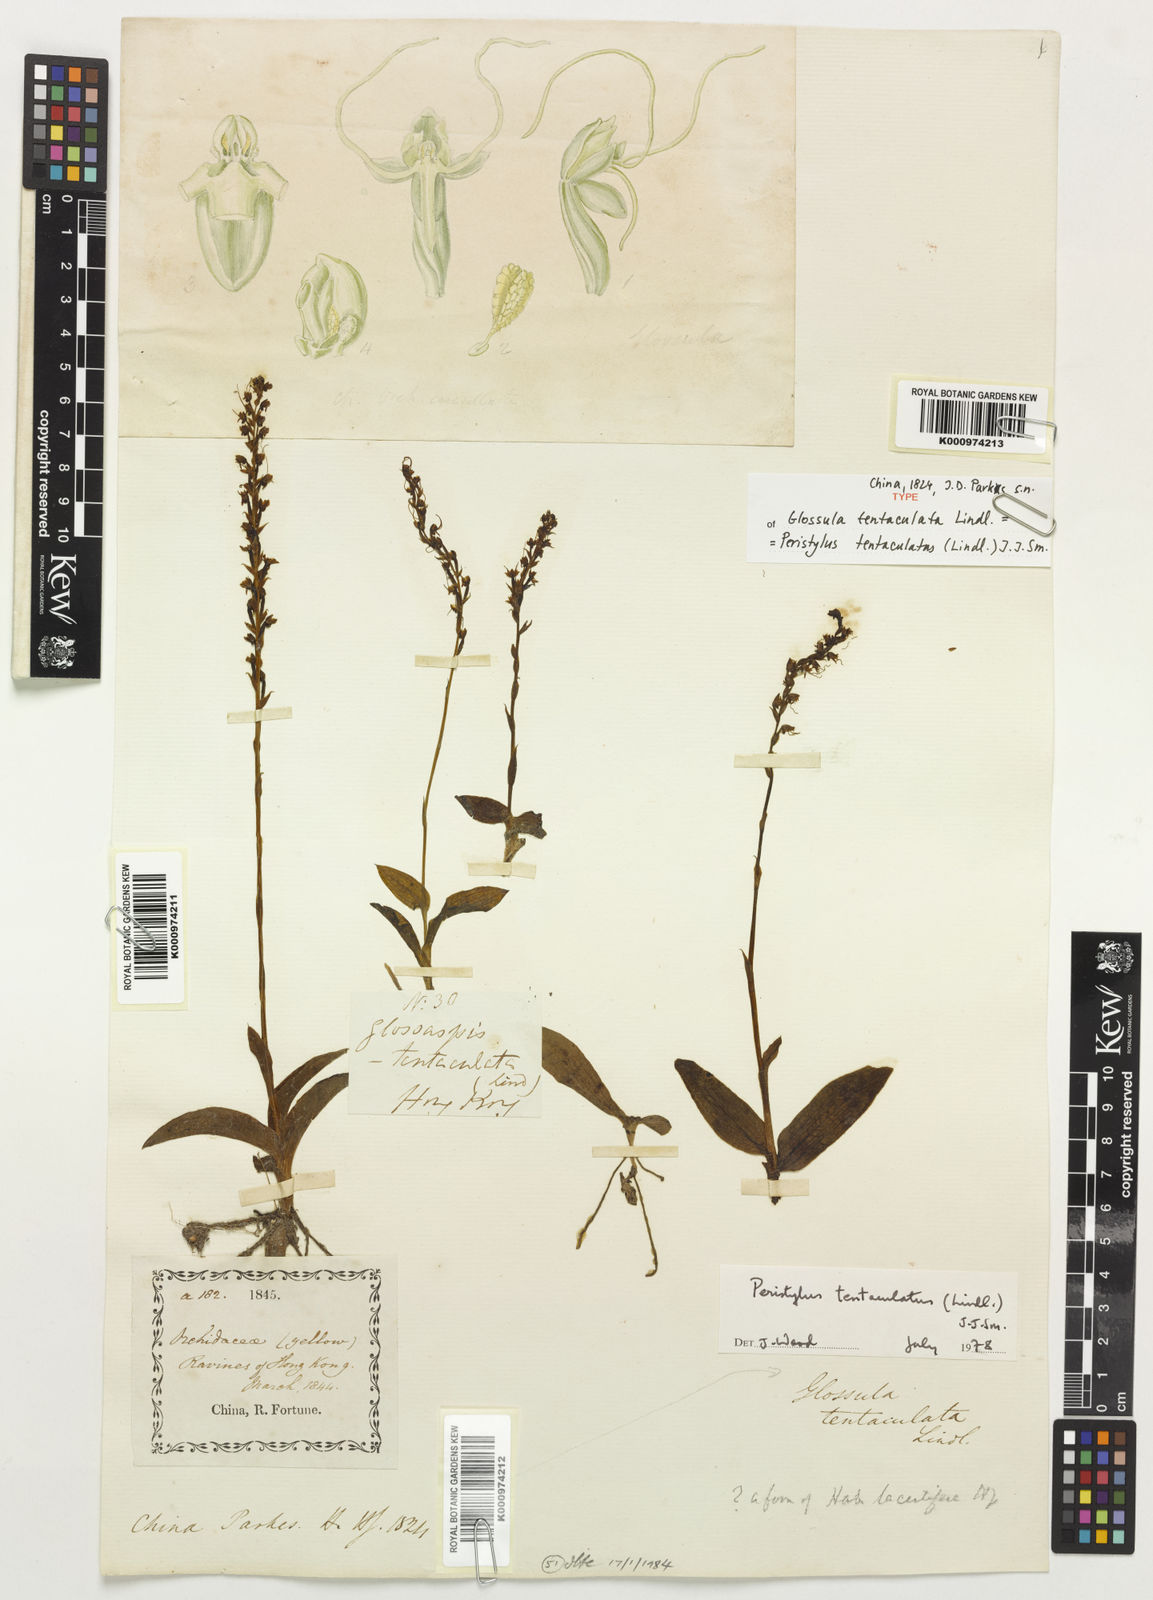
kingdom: Plantae
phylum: Tracheophyta
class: Liliopsida
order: Asparagales
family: Orchidaceae
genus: Peristylus
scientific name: Peristylus tentaculatus
